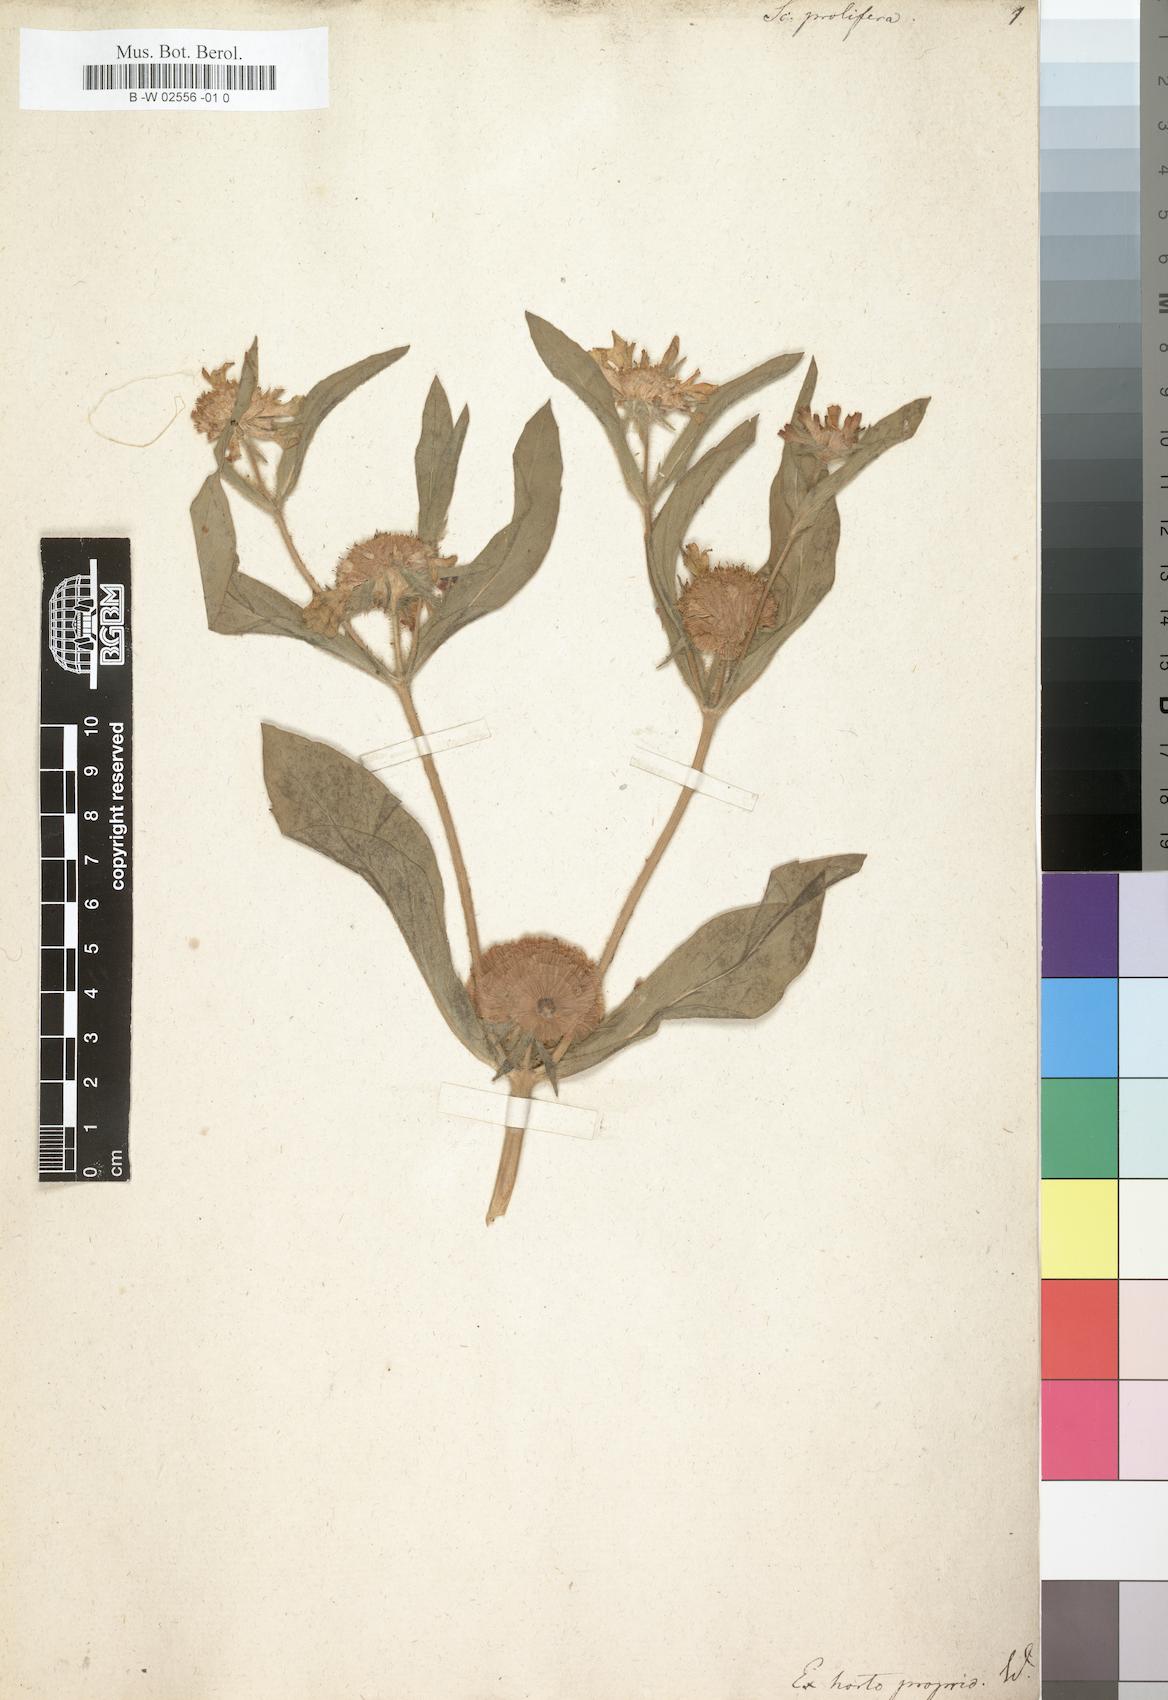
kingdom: Plantae
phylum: Tracheophyta
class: Magnoliopsida
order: Dipsacales
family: Caprifoliaceae
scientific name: Caprifoliaceae
